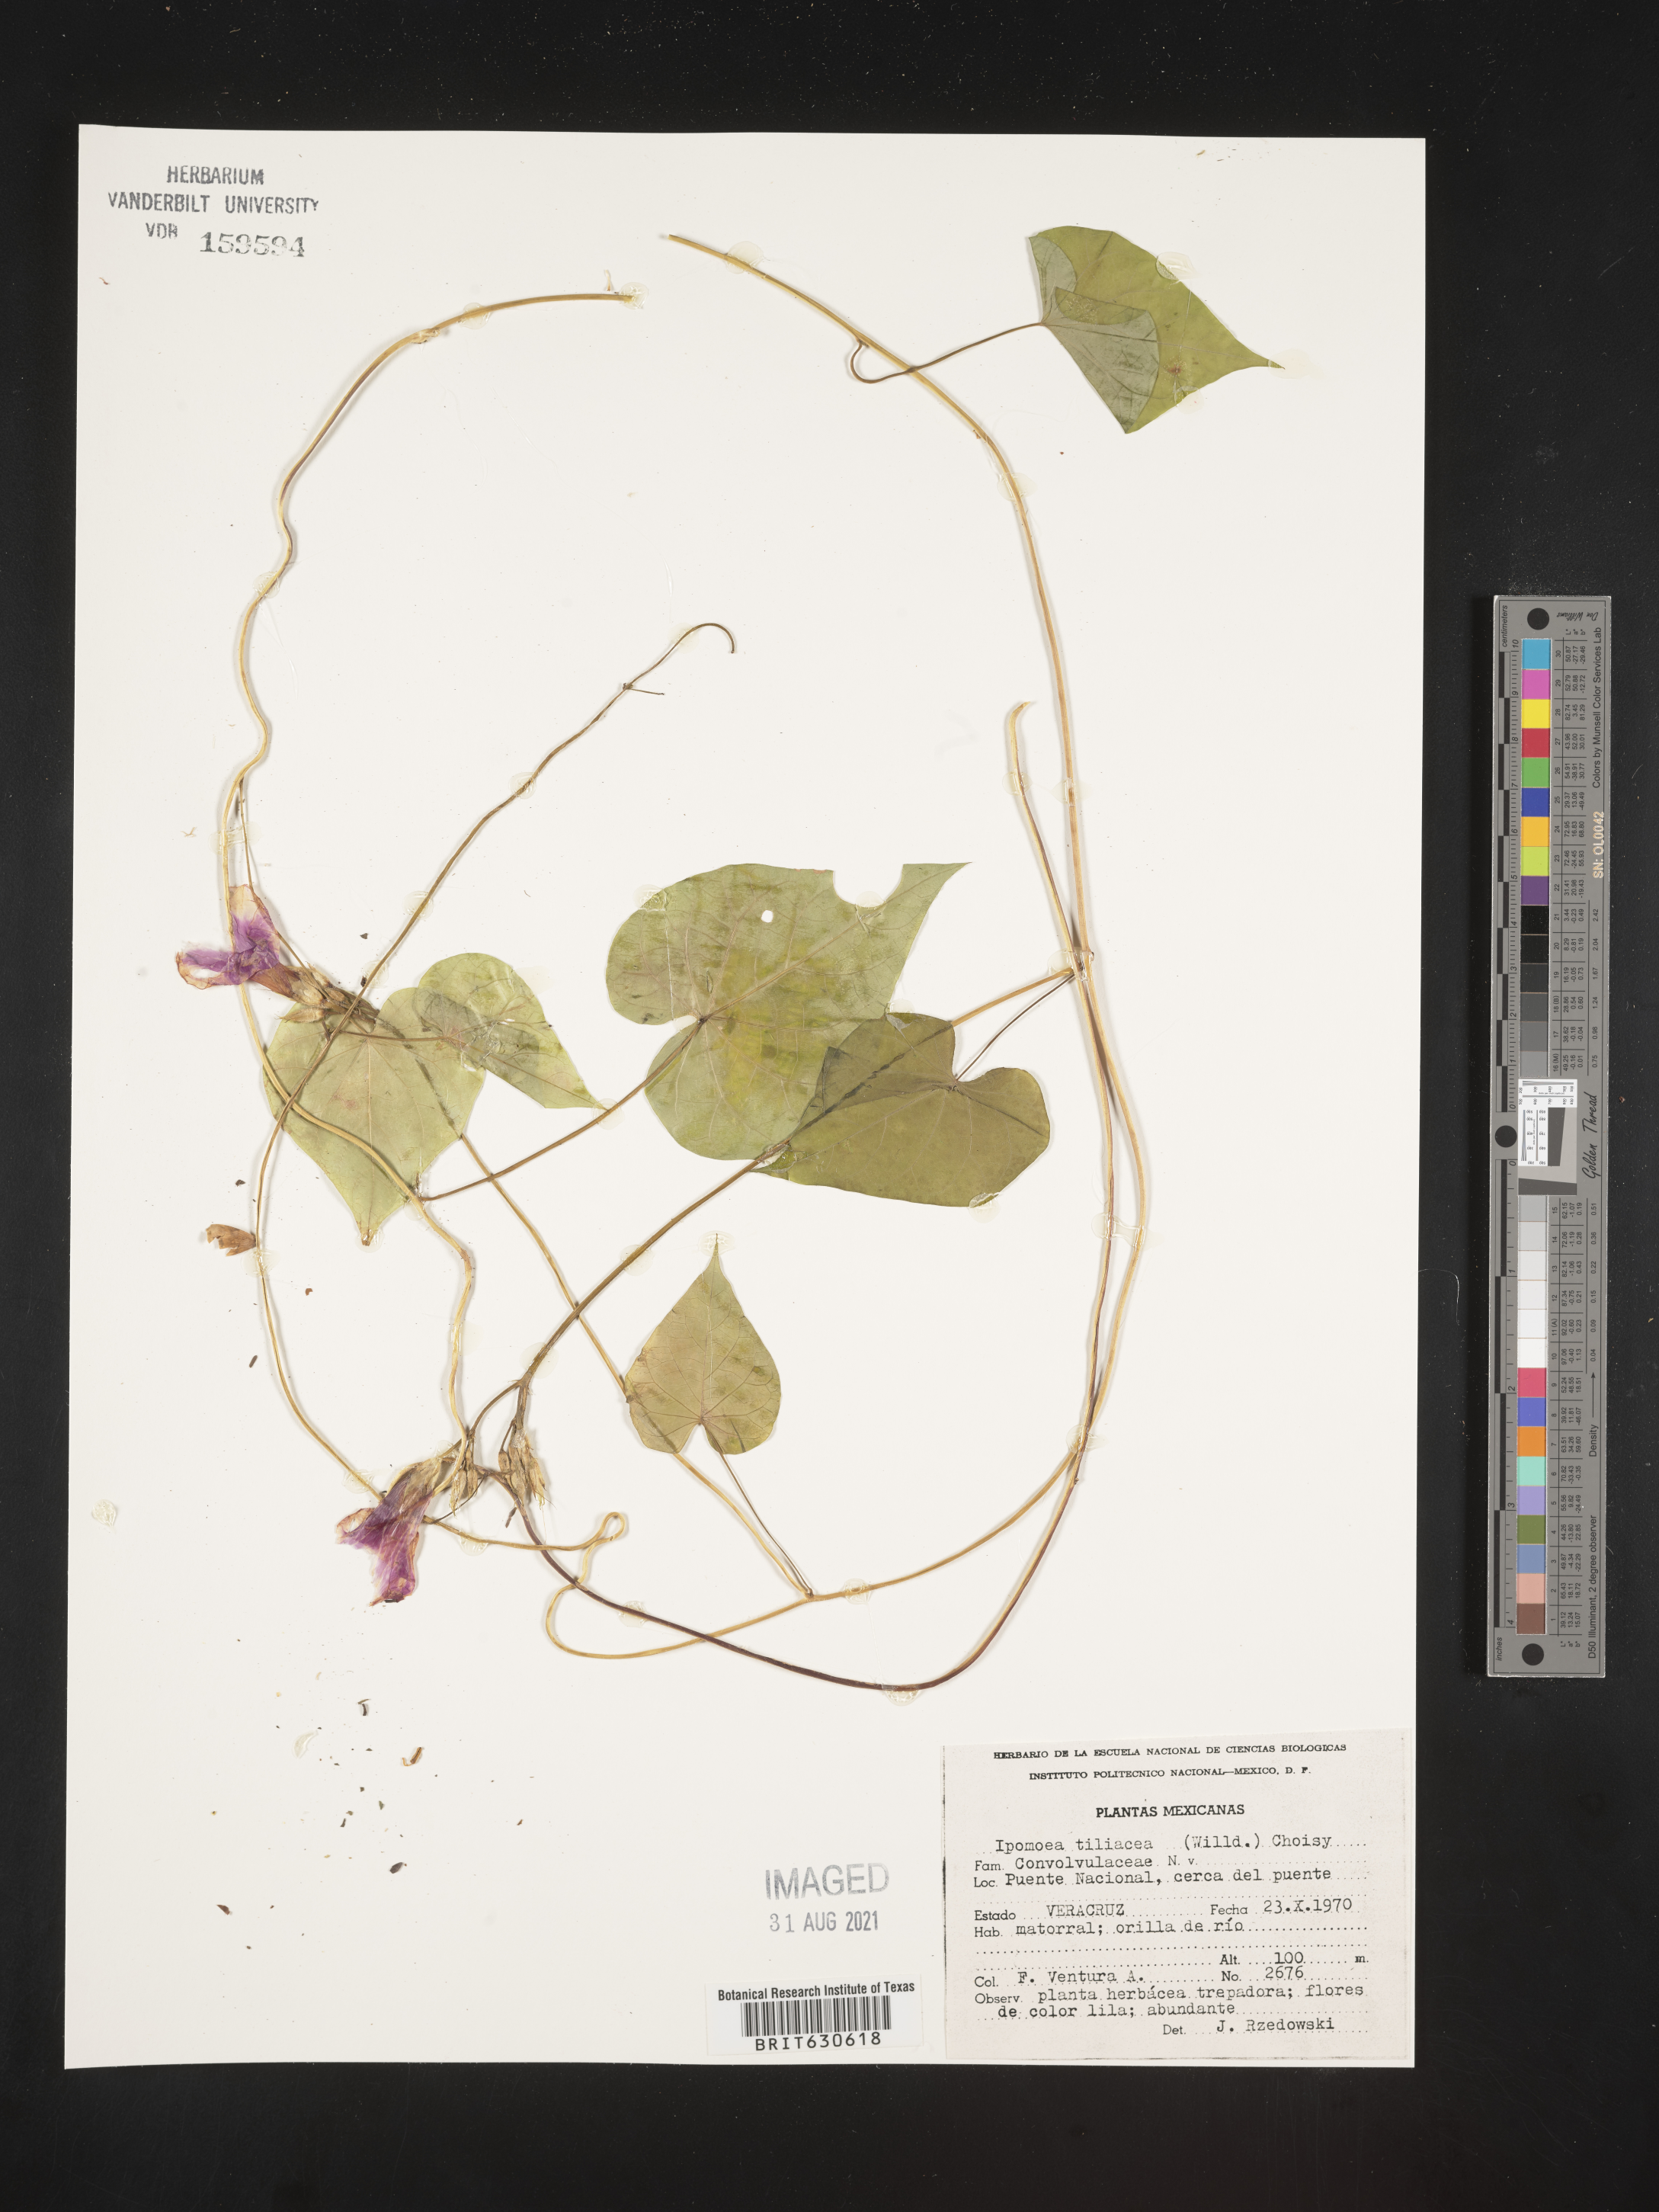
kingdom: Plantae
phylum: Tracheophyta
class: Magnoliopsida
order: Solanales
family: Convolvulaceae
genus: Ipomoea
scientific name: Ipomoea
